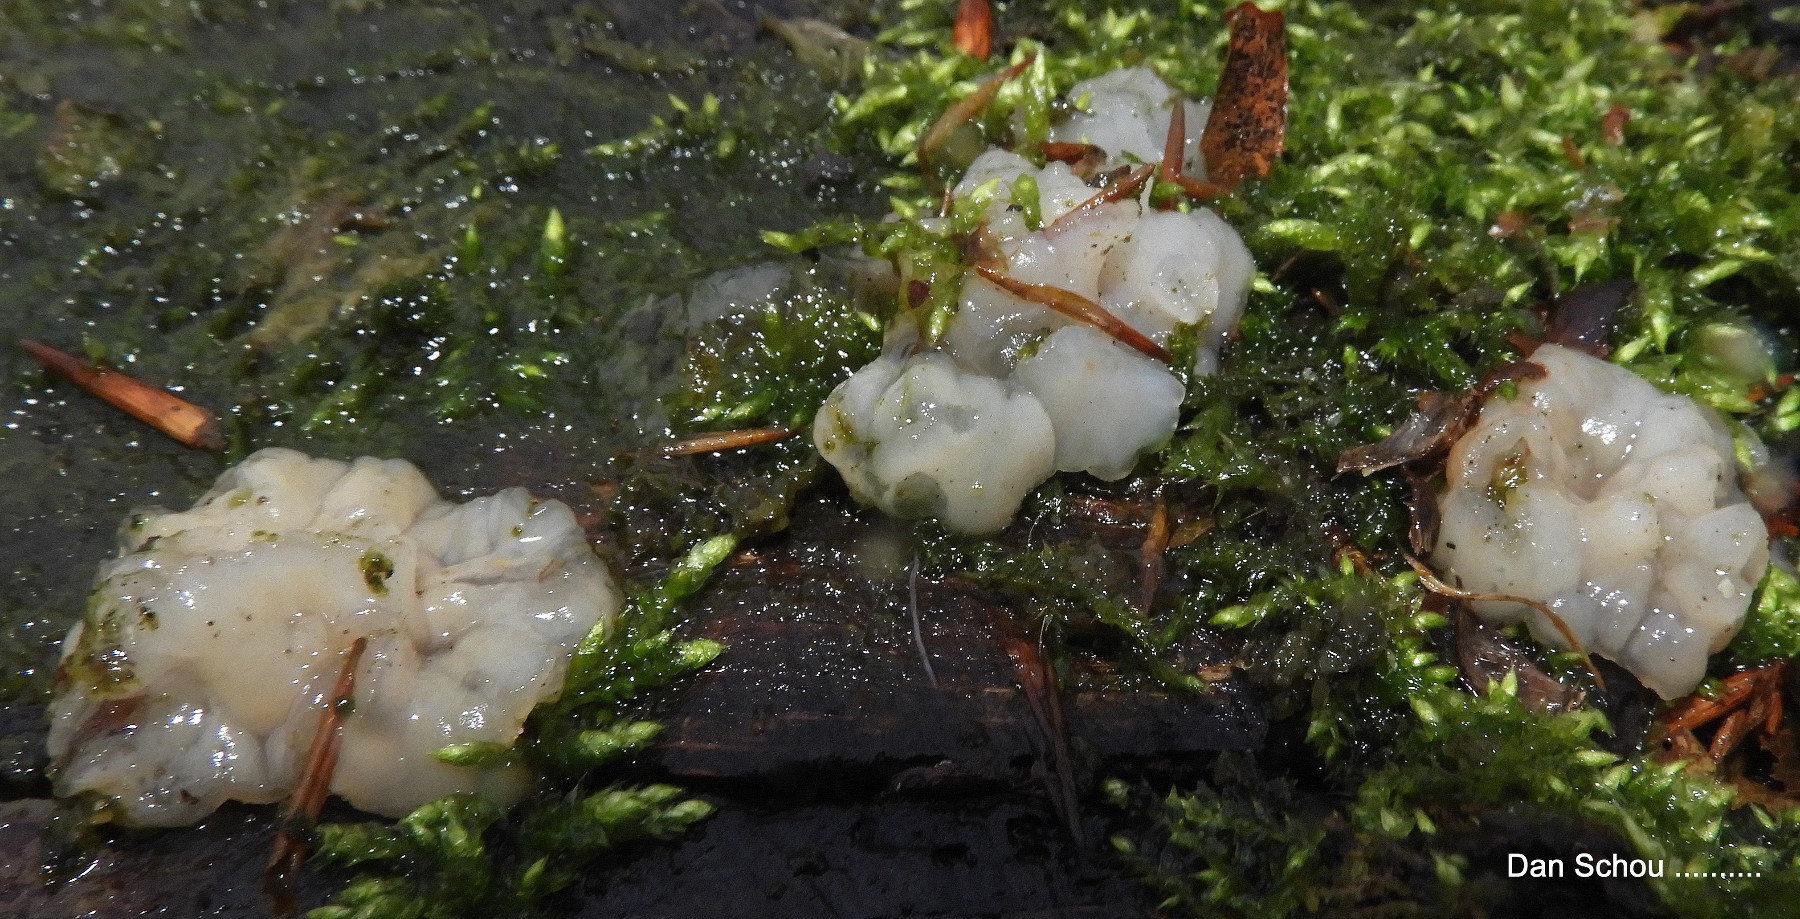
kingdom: Fungi
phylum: Basidiomycota
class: Agaricomycetes
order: Auriculariales
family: Auriculariaceae
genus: Exidia
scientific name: Exidia thuretiana
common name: hvidlig bævretop
